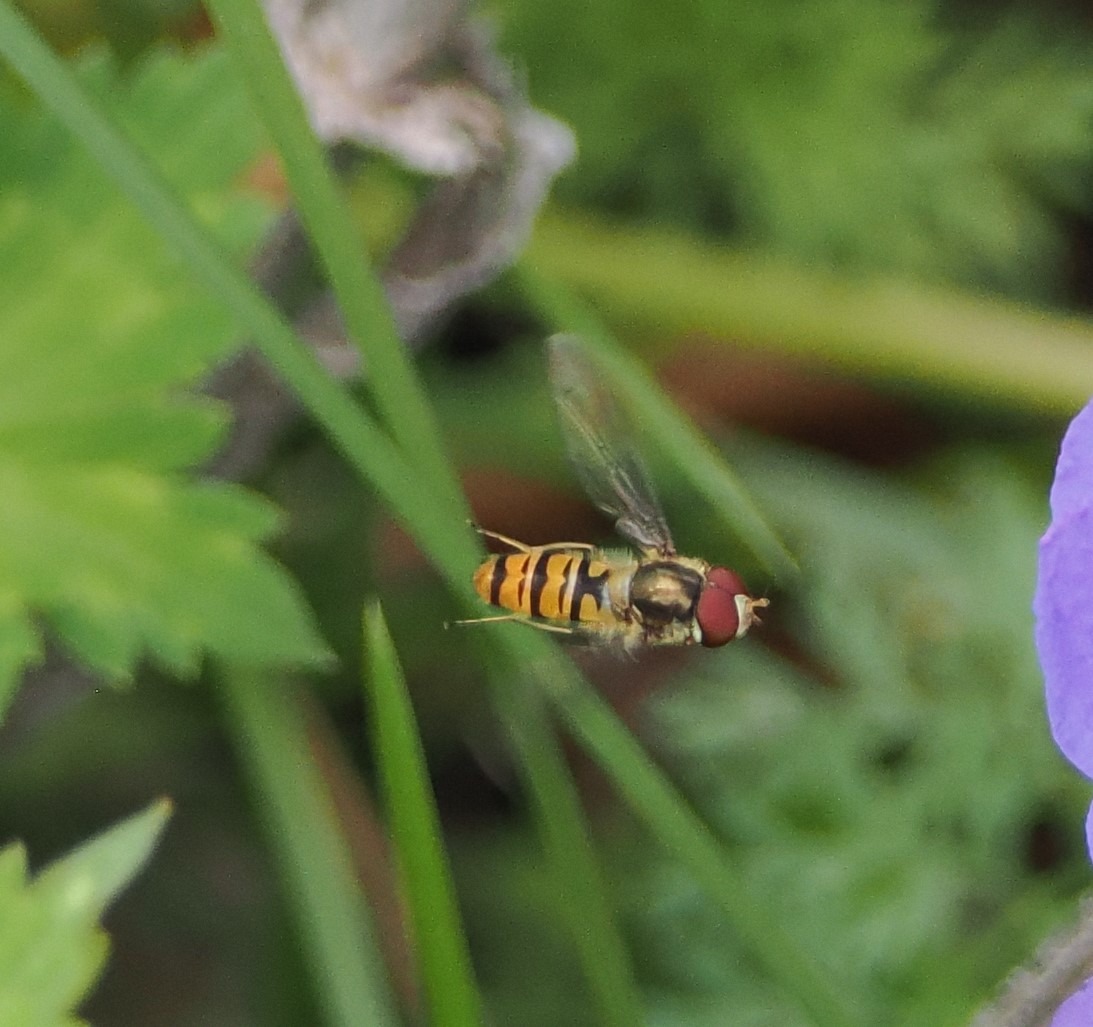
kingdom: Animalia
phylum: Arthropoda
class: Insecta
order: Diptera
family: Syrphidae
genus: Episyrphus
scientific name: Episyrphus balteatus
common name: Dobbeltbåndet svirreflue
